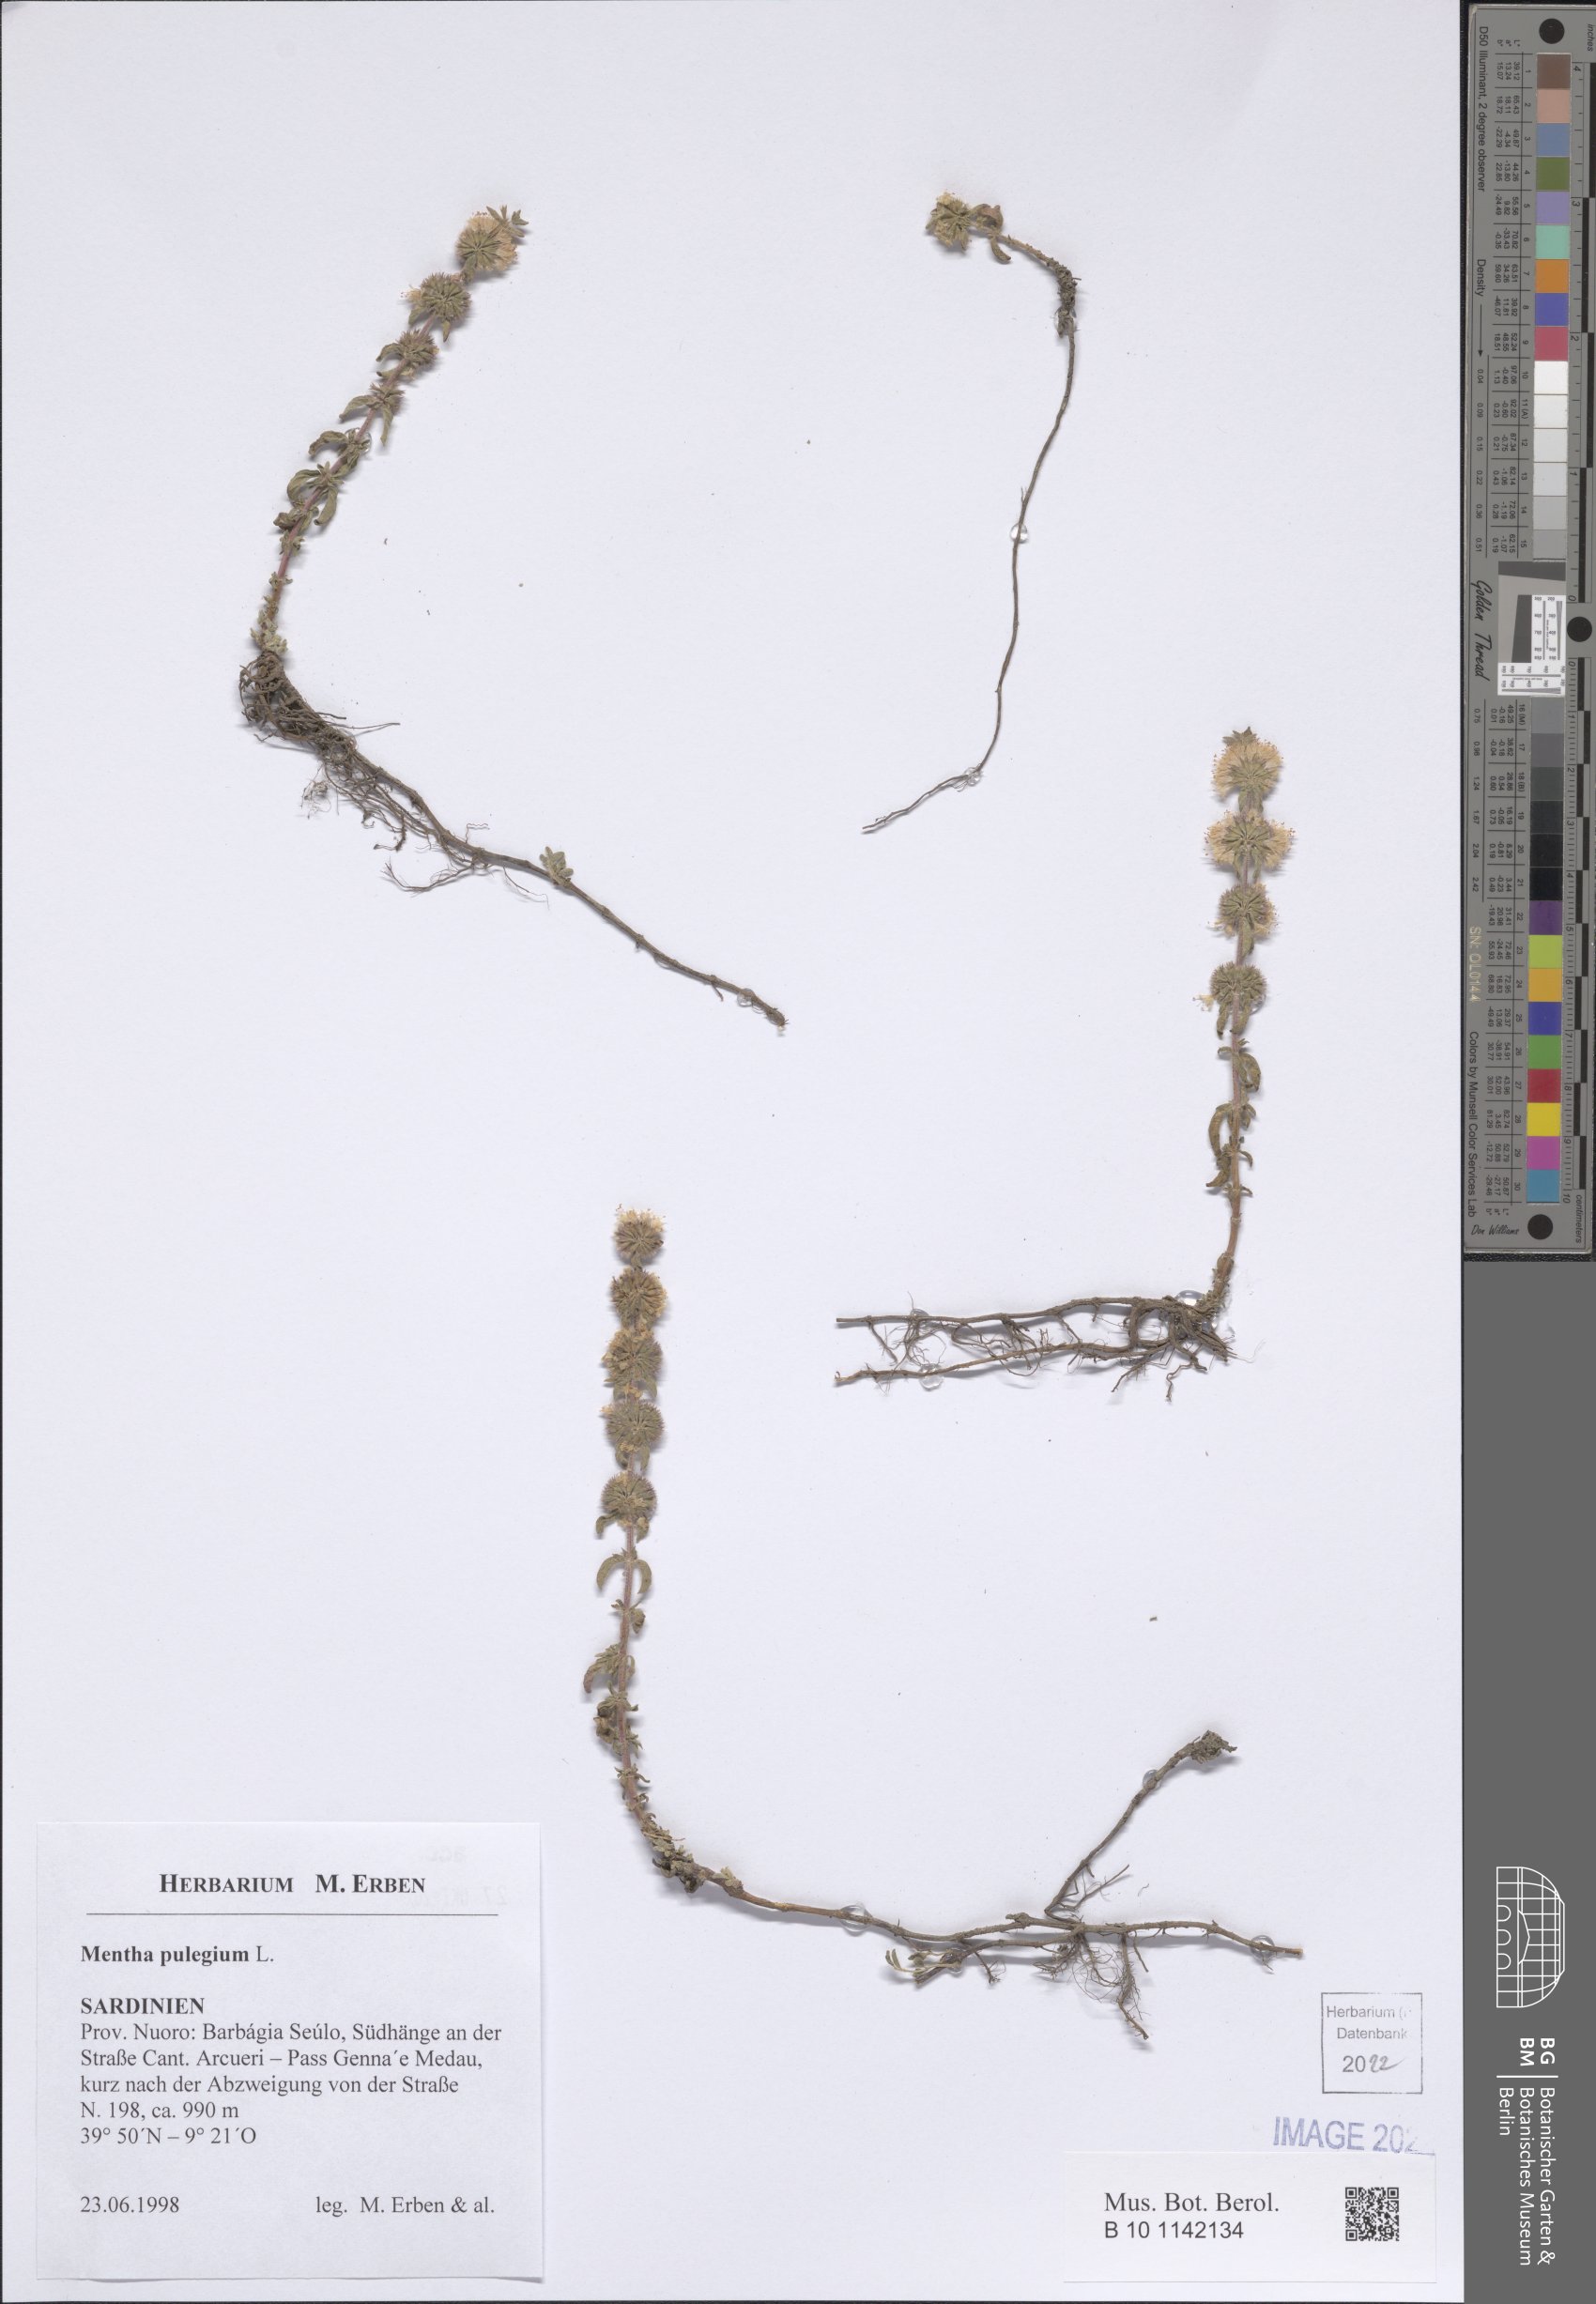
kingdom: Plantae
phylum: Tracheophyta
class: Magnoliopsida
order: Lamiales
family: Lamiaceae
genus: Mentha
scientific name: Mentha pulegium
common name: Pennyroyal
